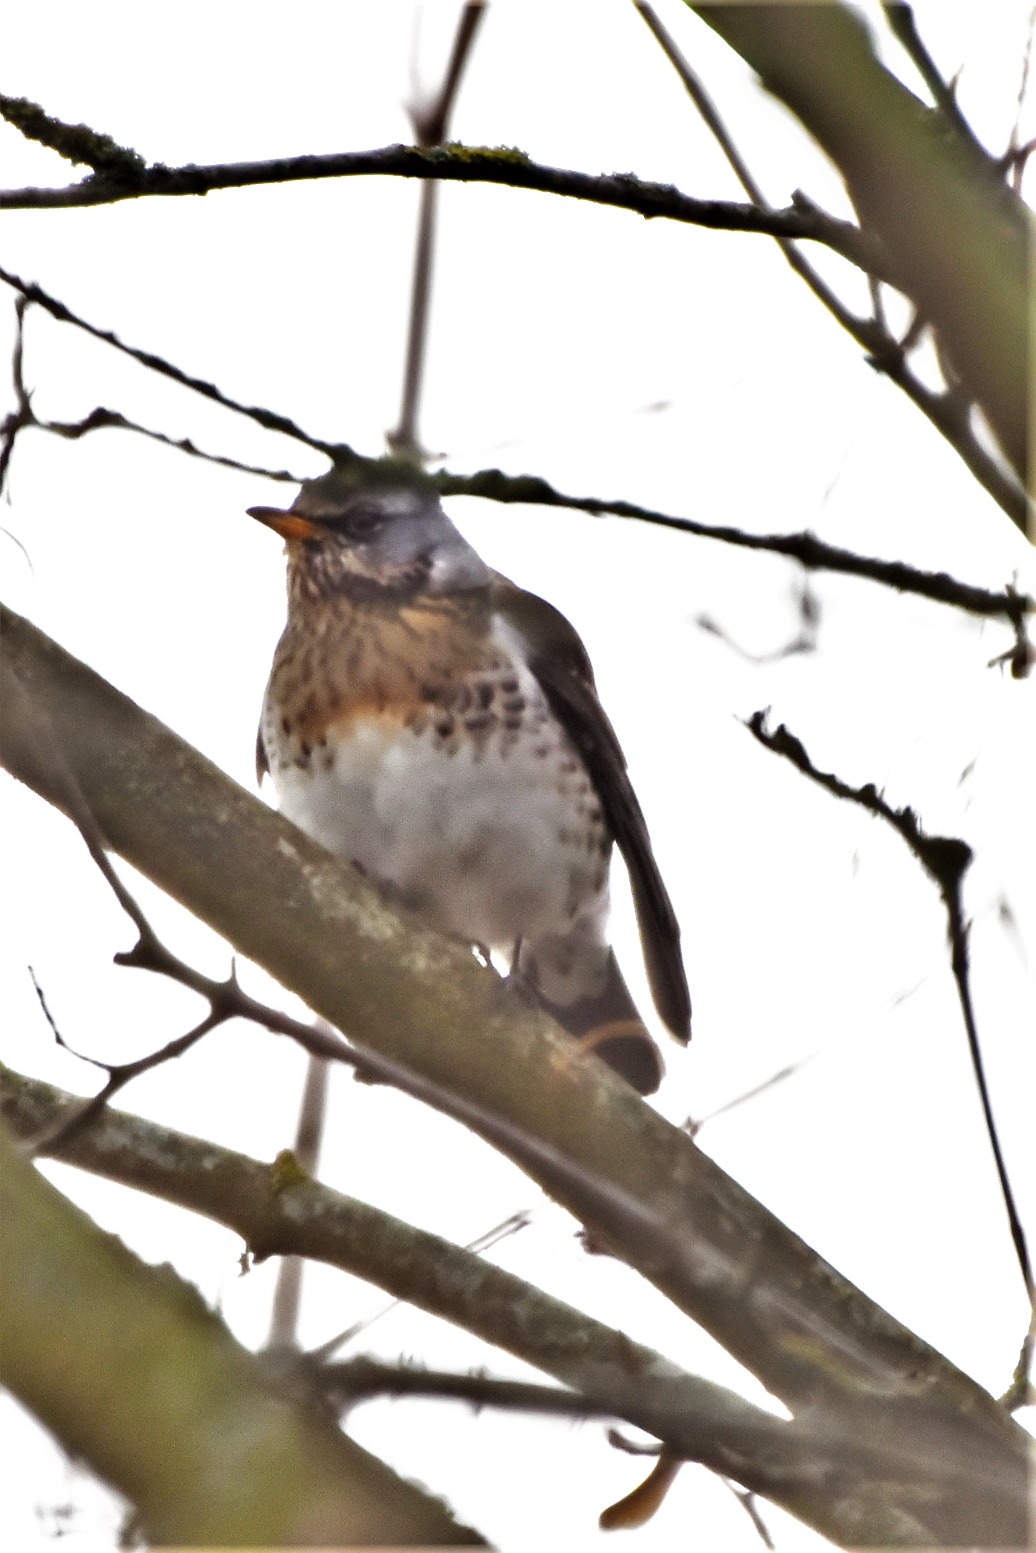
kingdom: Animalia
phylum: Chordata
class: Aves
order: Passeriformes
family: Turdidae
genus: Turdus
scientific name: Turdus pilaris
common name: Sjagger
